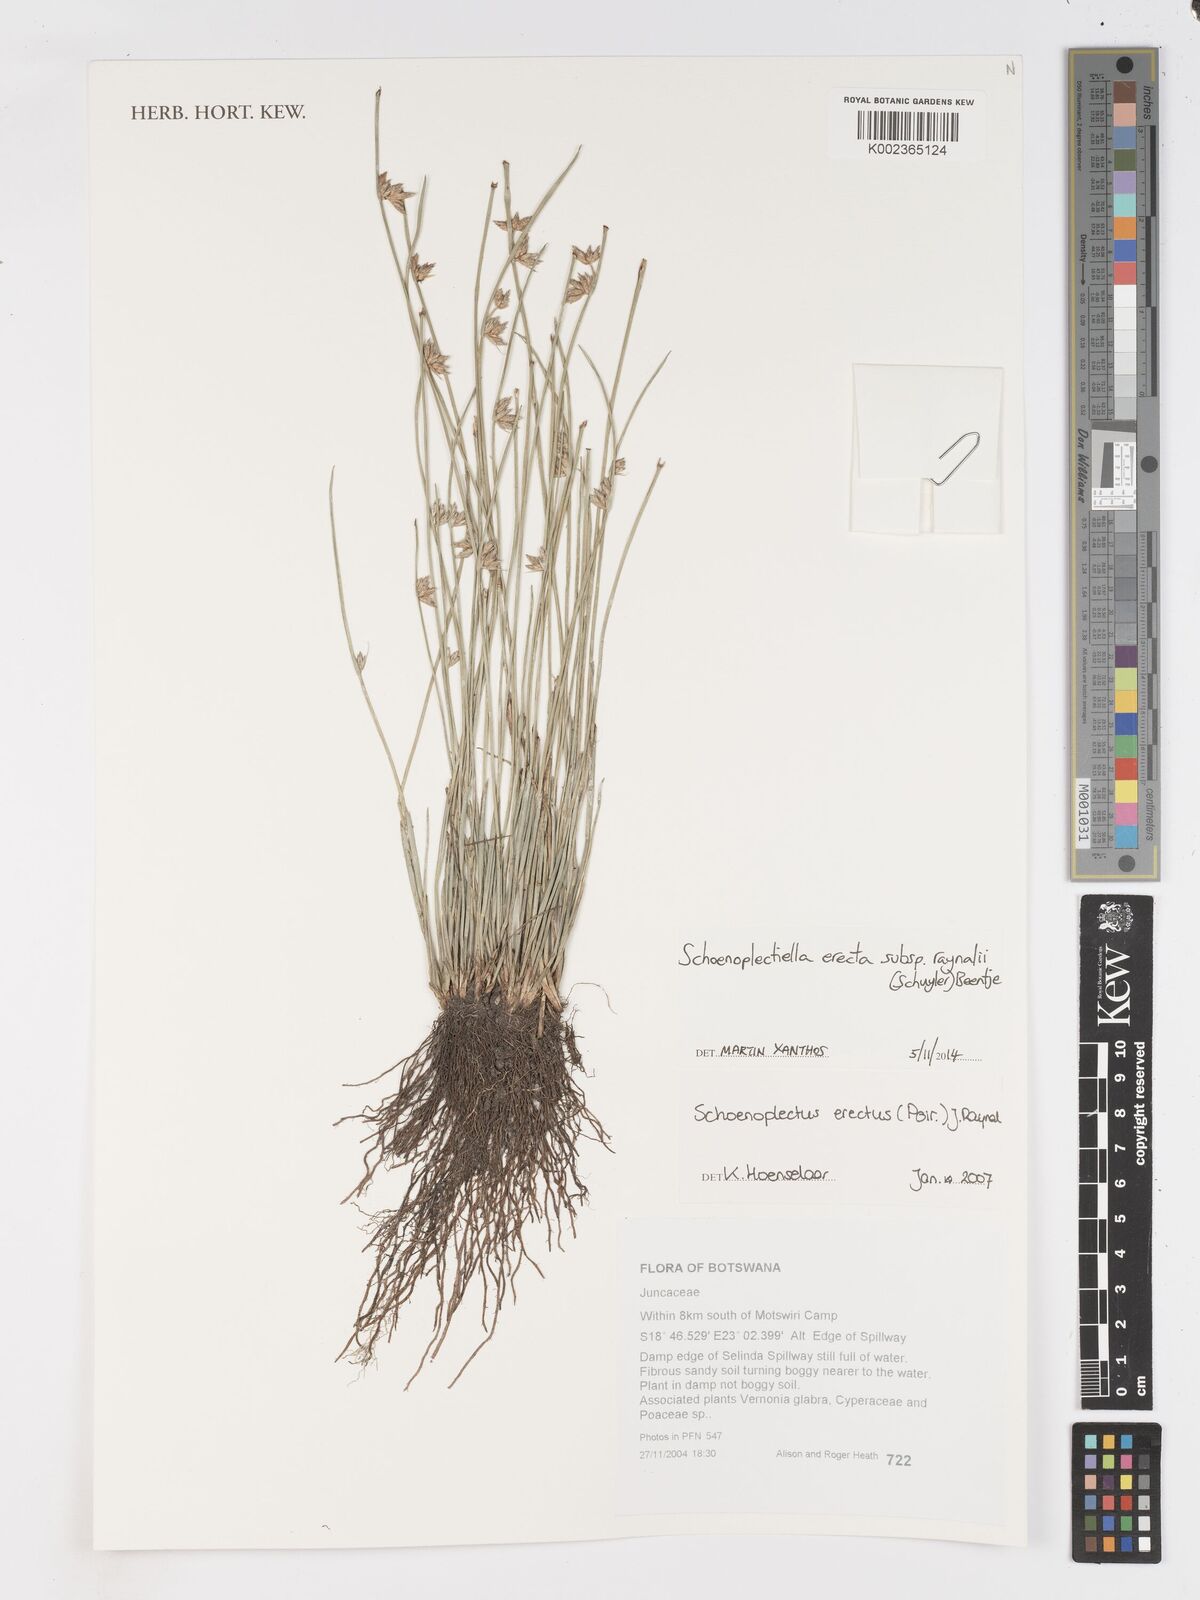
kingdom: Plantae
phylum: Tracheophyta
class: Liliopsida
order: Poales
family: Cyperaceae
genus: Schoenoplectiella
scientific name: Schoenoplectiella erecta
